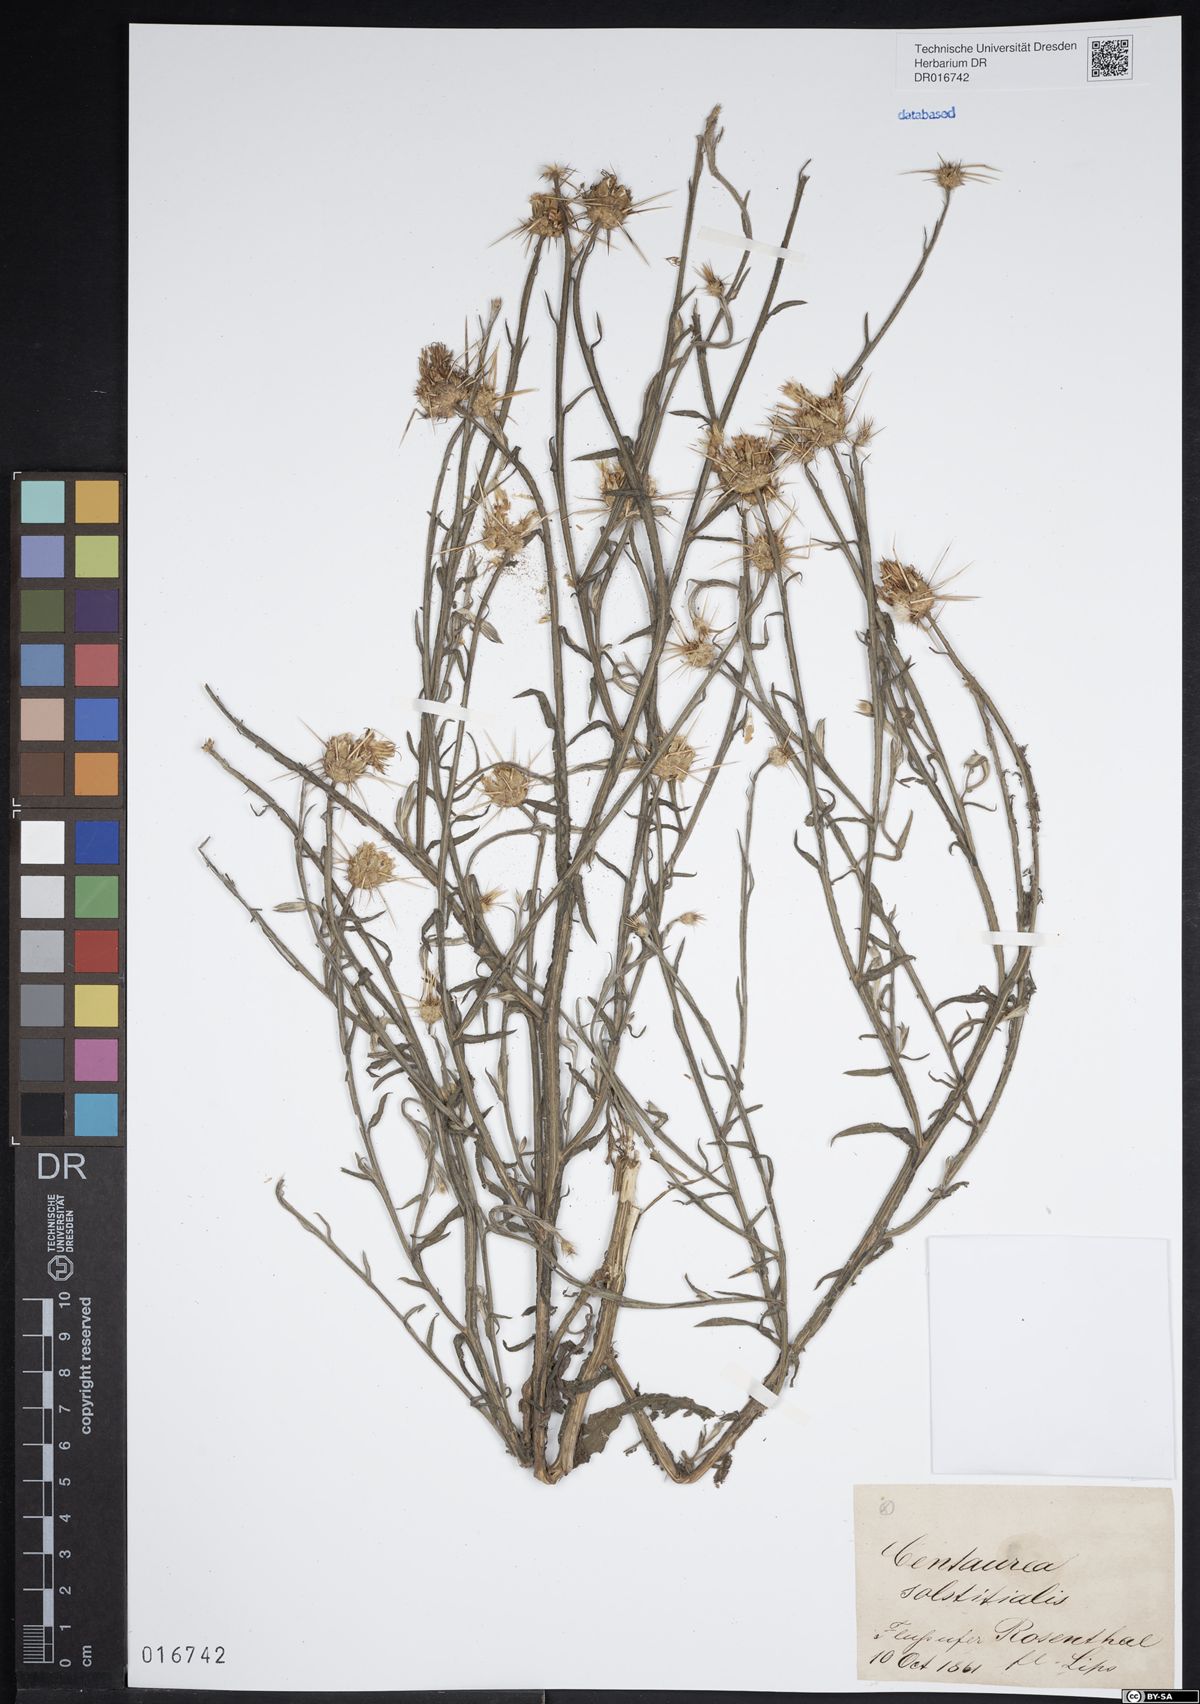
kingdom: Plantae
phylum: Tracheophyta
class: Magnoliopsida
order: Asterales
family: Asteraceae
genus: Centaurea
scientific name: Centaurea solstitialis
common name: Yellow star-thistle
